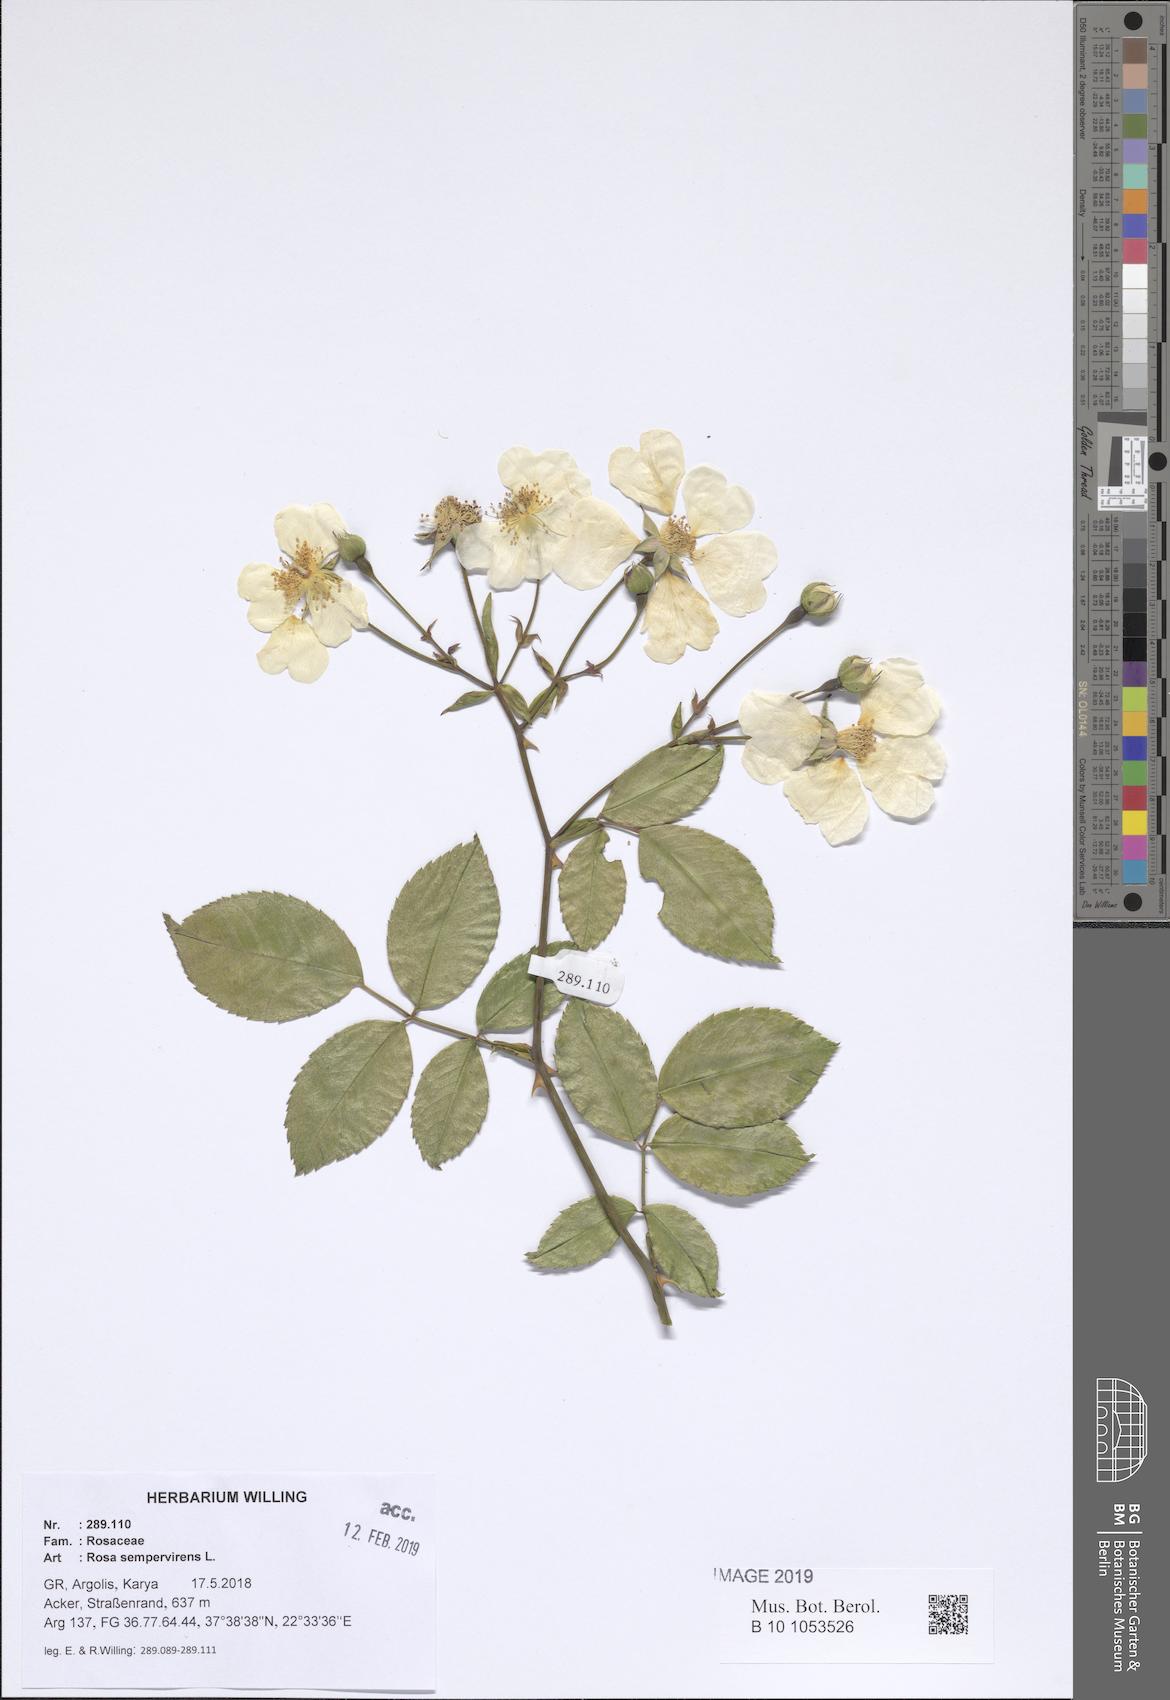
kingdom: Plantae
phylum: Tracheophyta
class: Magnoliopsida
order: Rosales
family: Rosaceae
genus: Rosa
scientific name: Rosa sempervirens
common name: Evergreen rose
